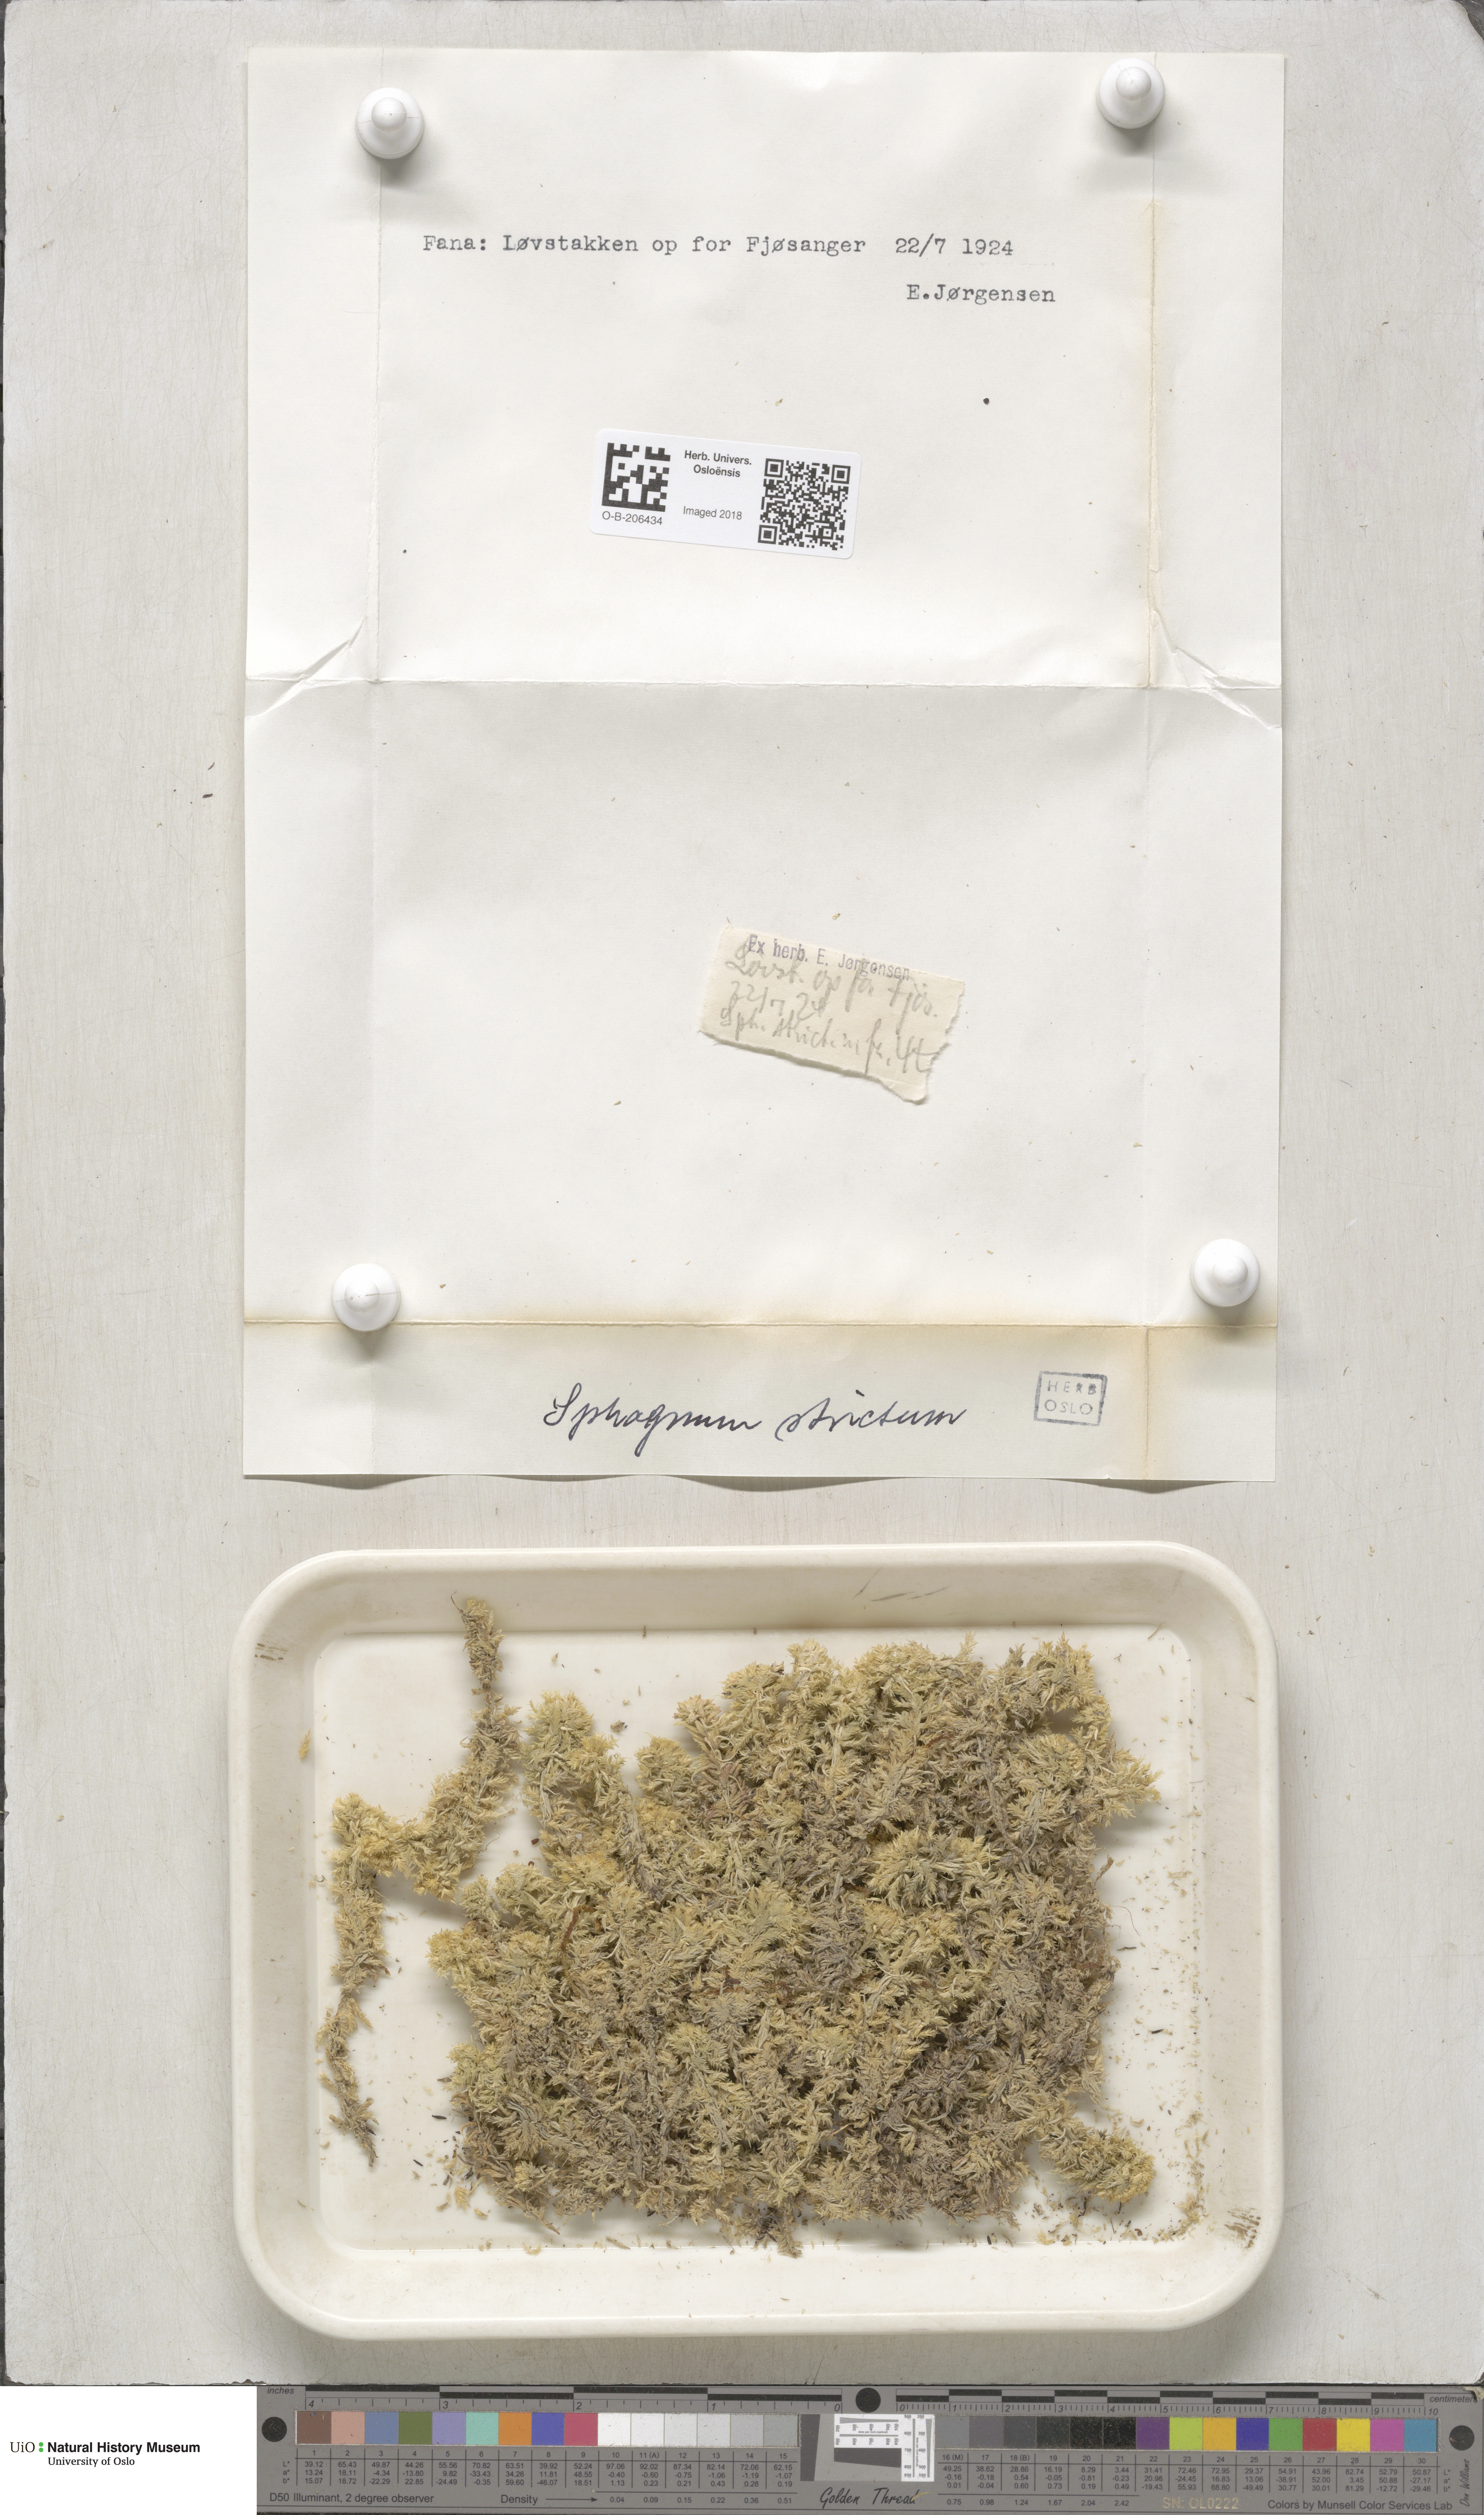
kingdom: Plantae
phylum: Bryophyta
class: Sphagnopsida
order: Sphagnales
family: Sphagnaceae
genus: Sphagnum
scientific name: Sphagnum strictum
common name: Pale bog-moss
